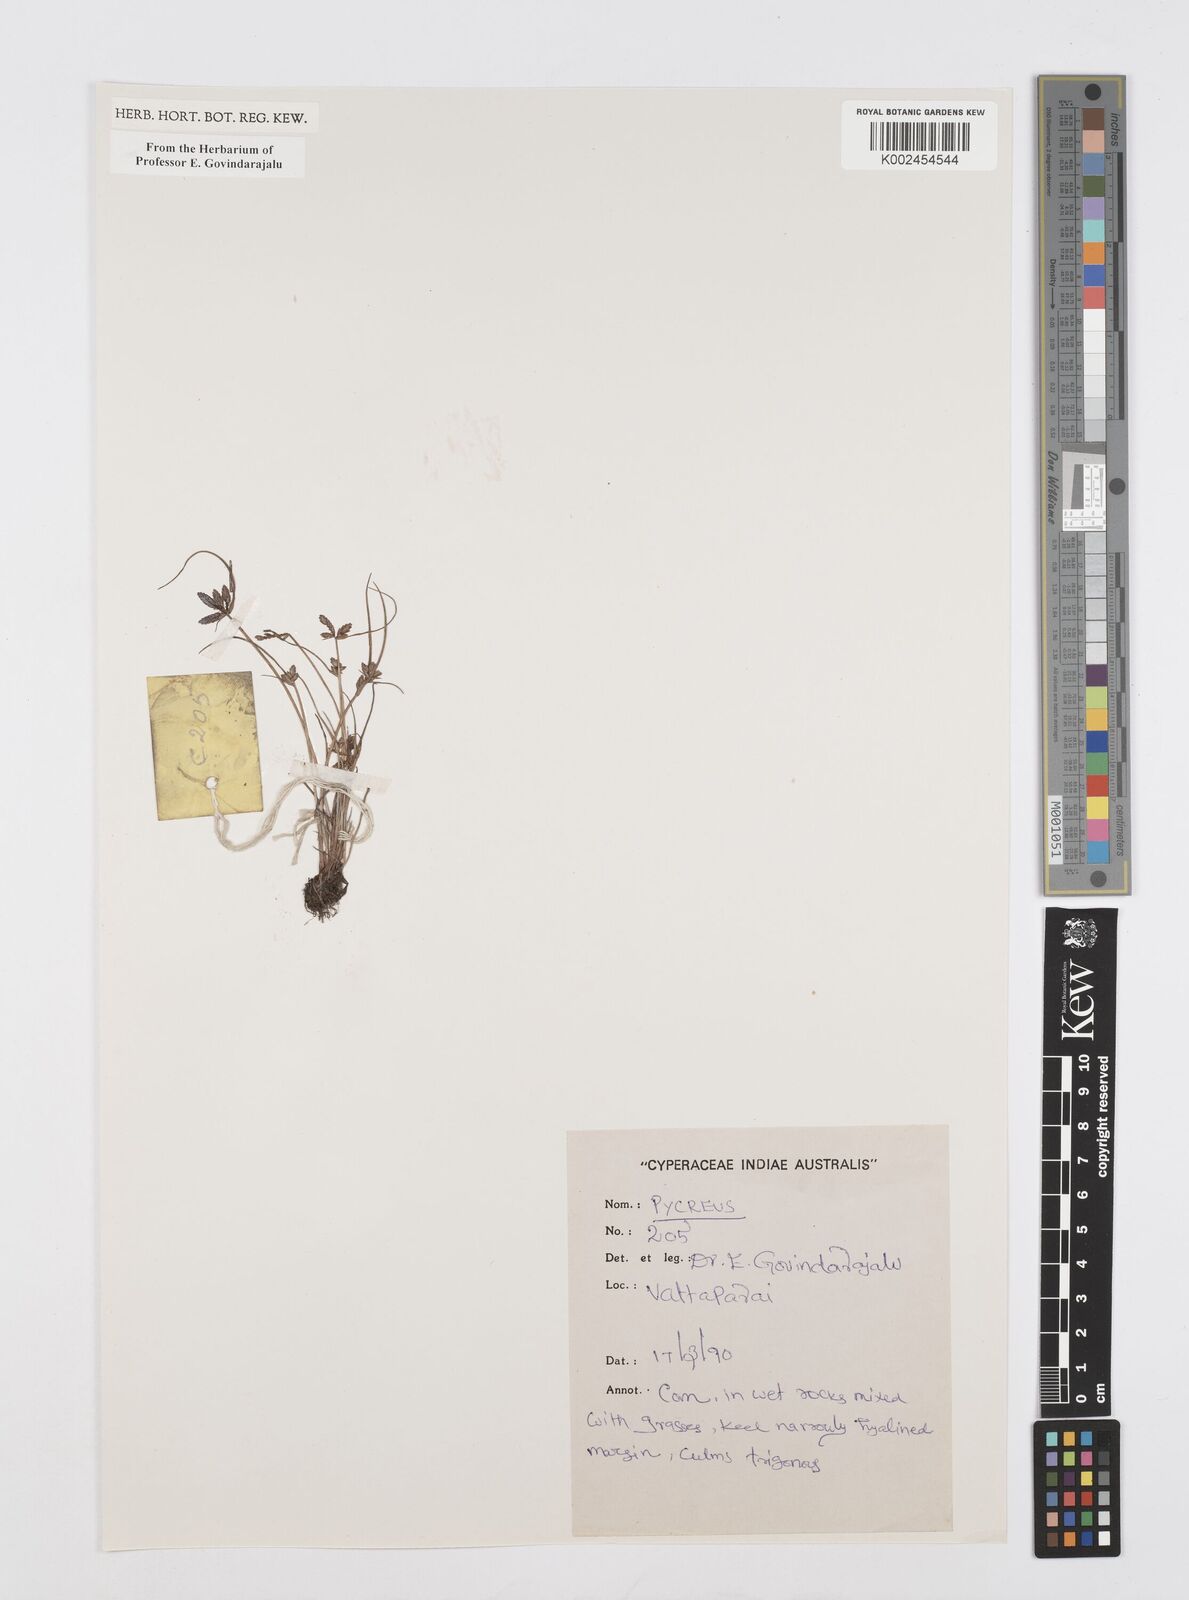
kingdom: Plantae
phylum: Tracheophyta
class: Liliopsida
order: Poales
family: Cyperaceae
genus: Cyperus
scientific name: Cyperus
